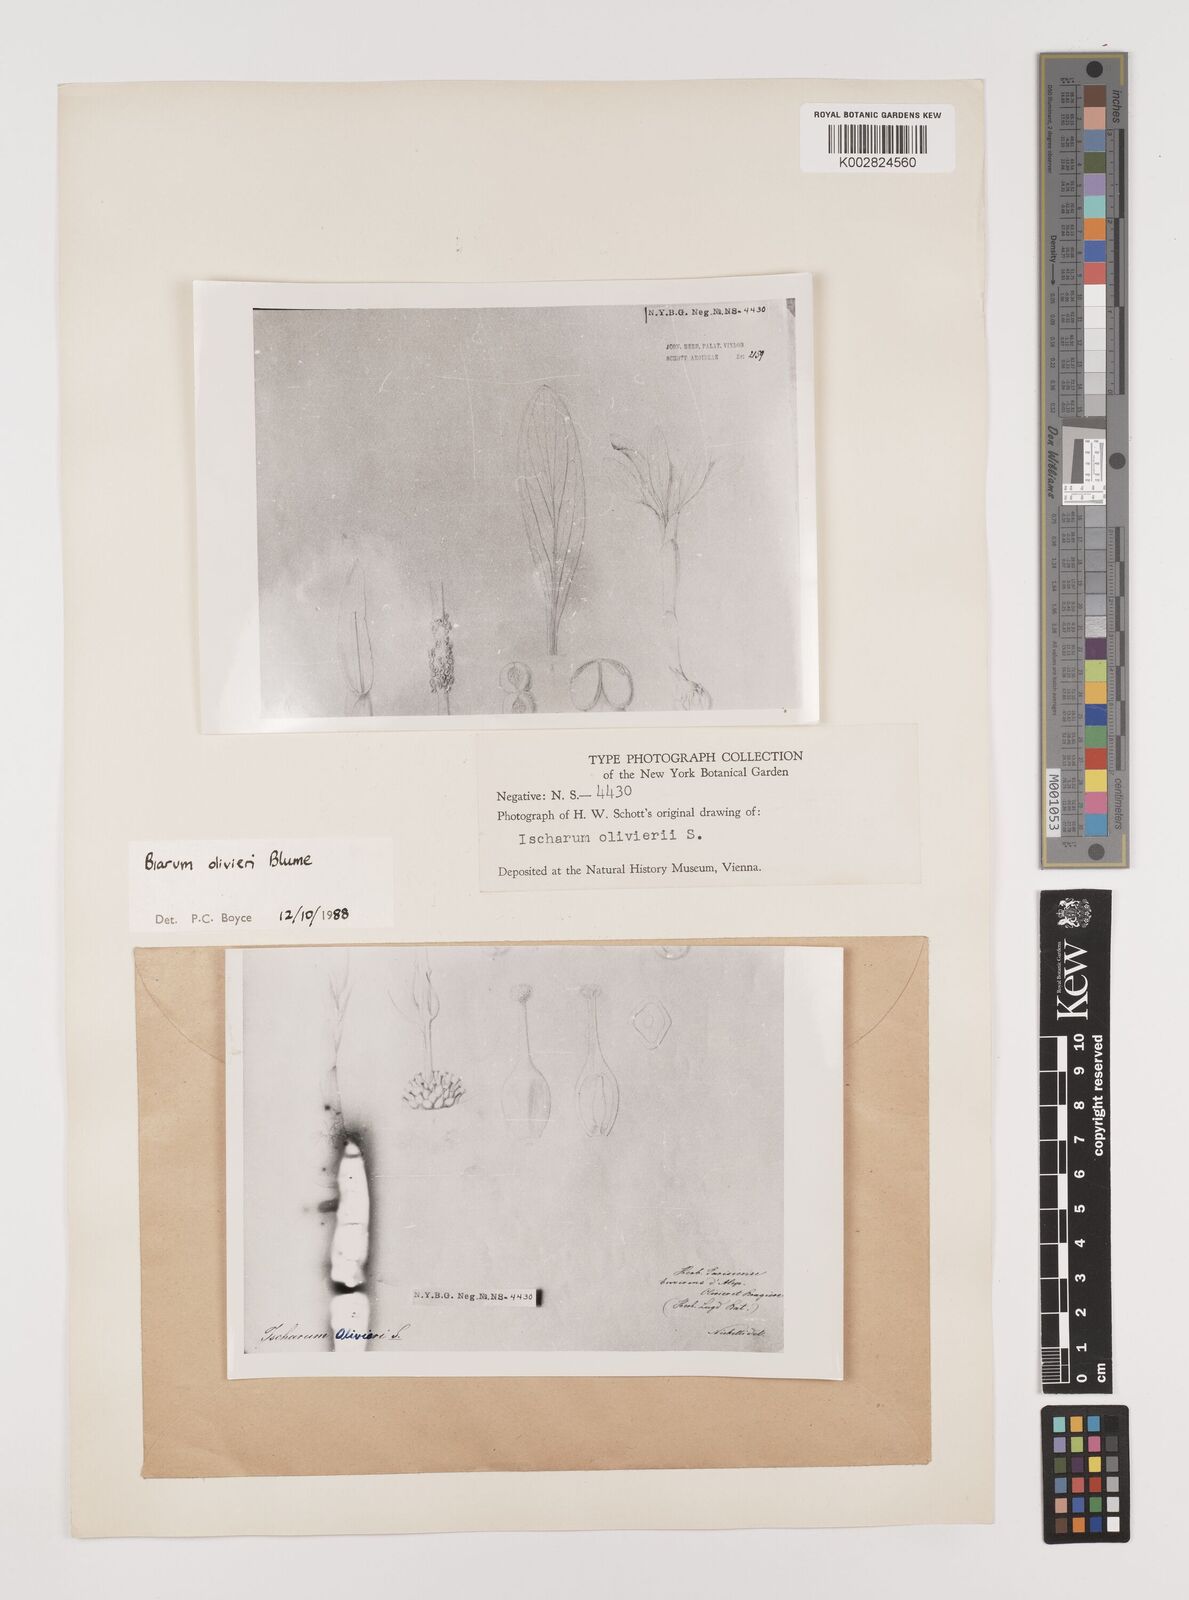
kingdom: Plantae
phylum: Tracheophyta
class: Liliopsida
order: Alismatales
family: Araceae
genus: Biarum
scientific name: Biarum olivieri
